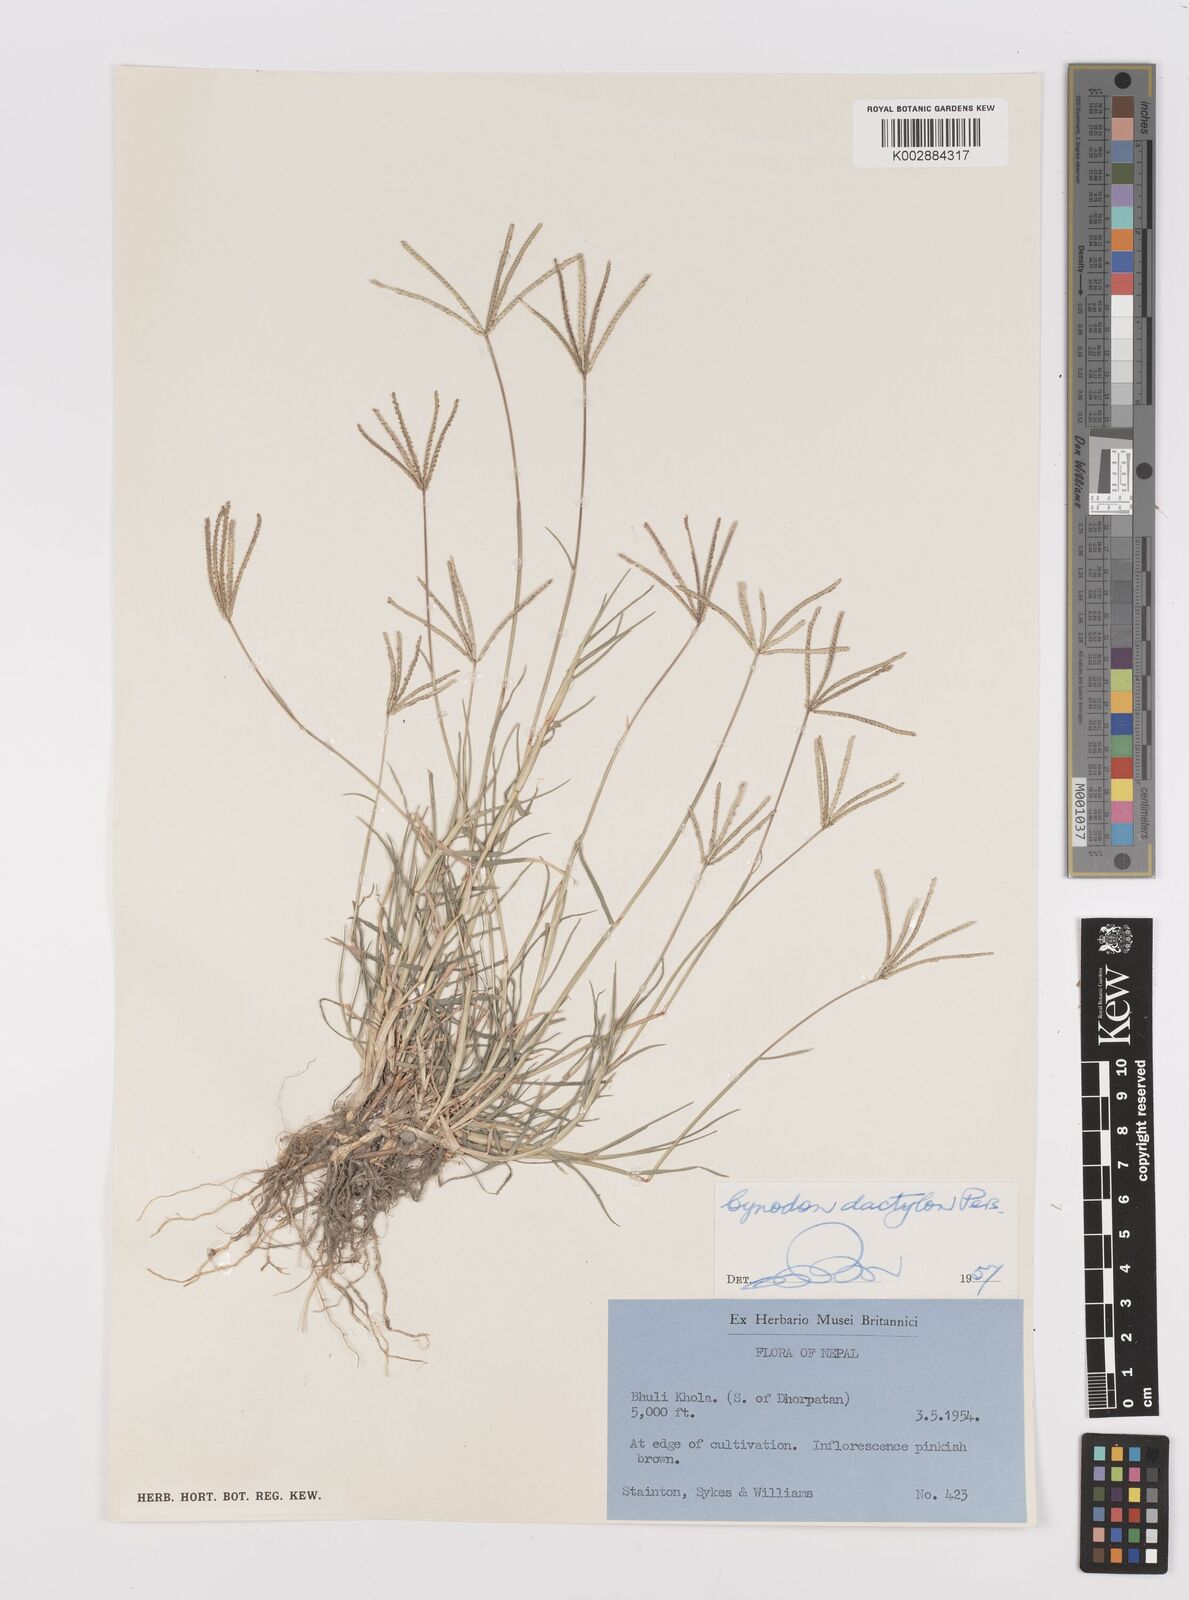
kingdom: Plantae
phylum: Tracheophyta
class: Liliopsida
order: Poales
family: Poaceae
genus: Cynodon
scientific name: Cynodon dactylon
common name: Bermuda grass
